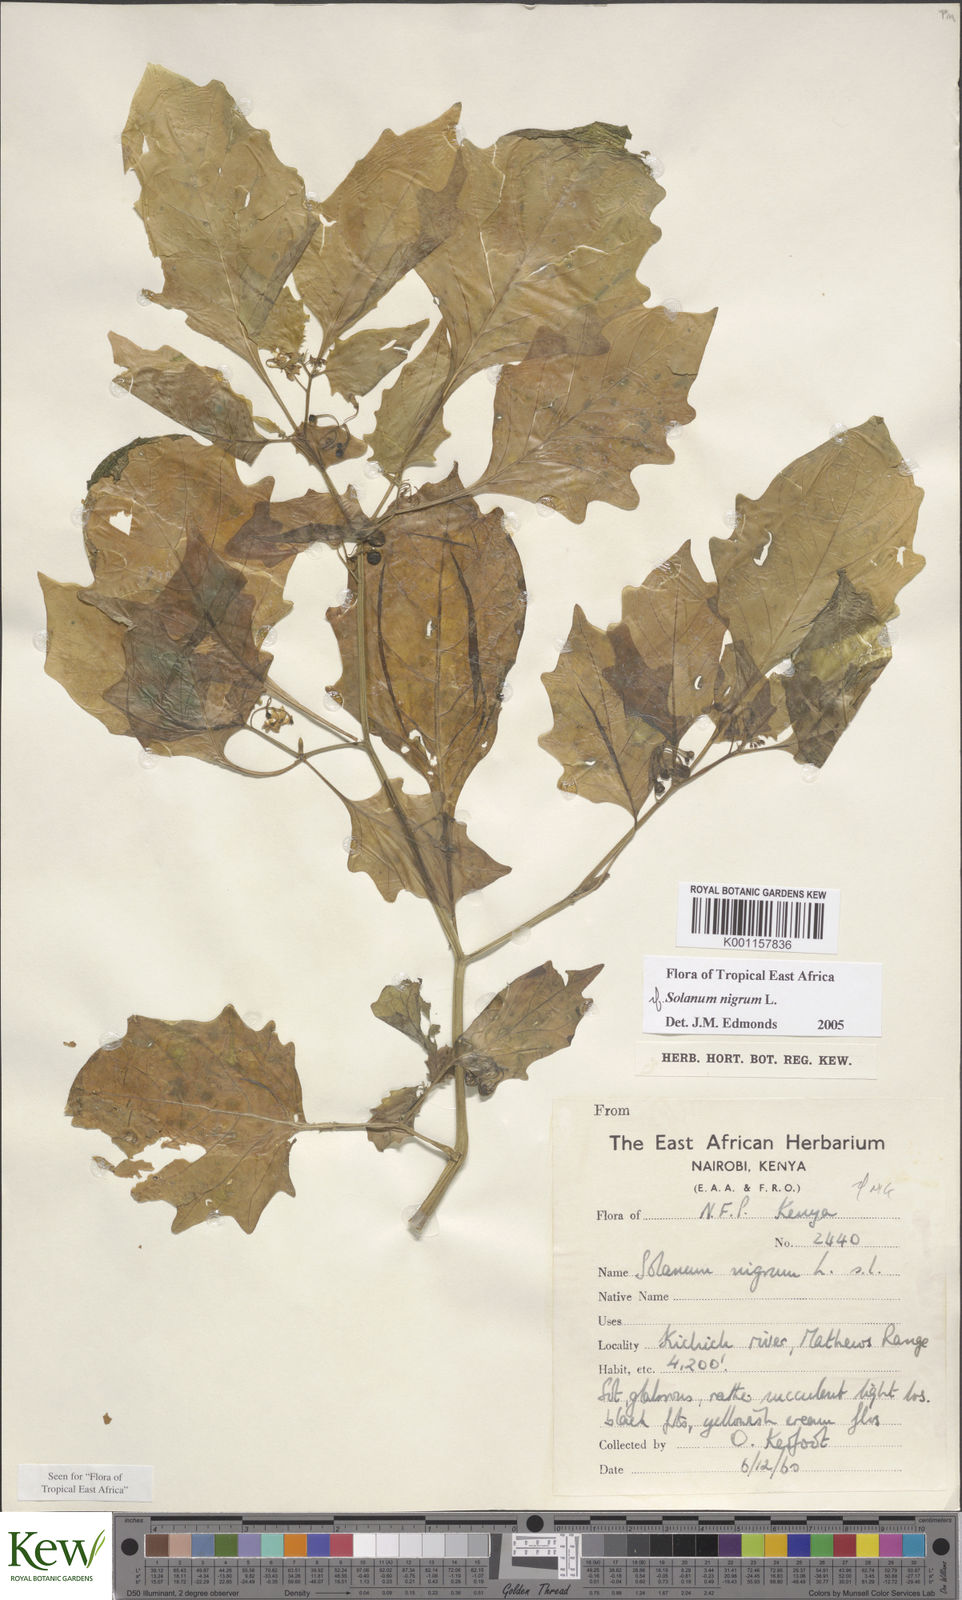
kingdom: Plantae
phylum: Tracheophyta
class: Magnoliopsida
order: Solanales
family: Solanaceae
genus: Solanum
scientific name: Solanum nigrum
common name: Black nightshade
